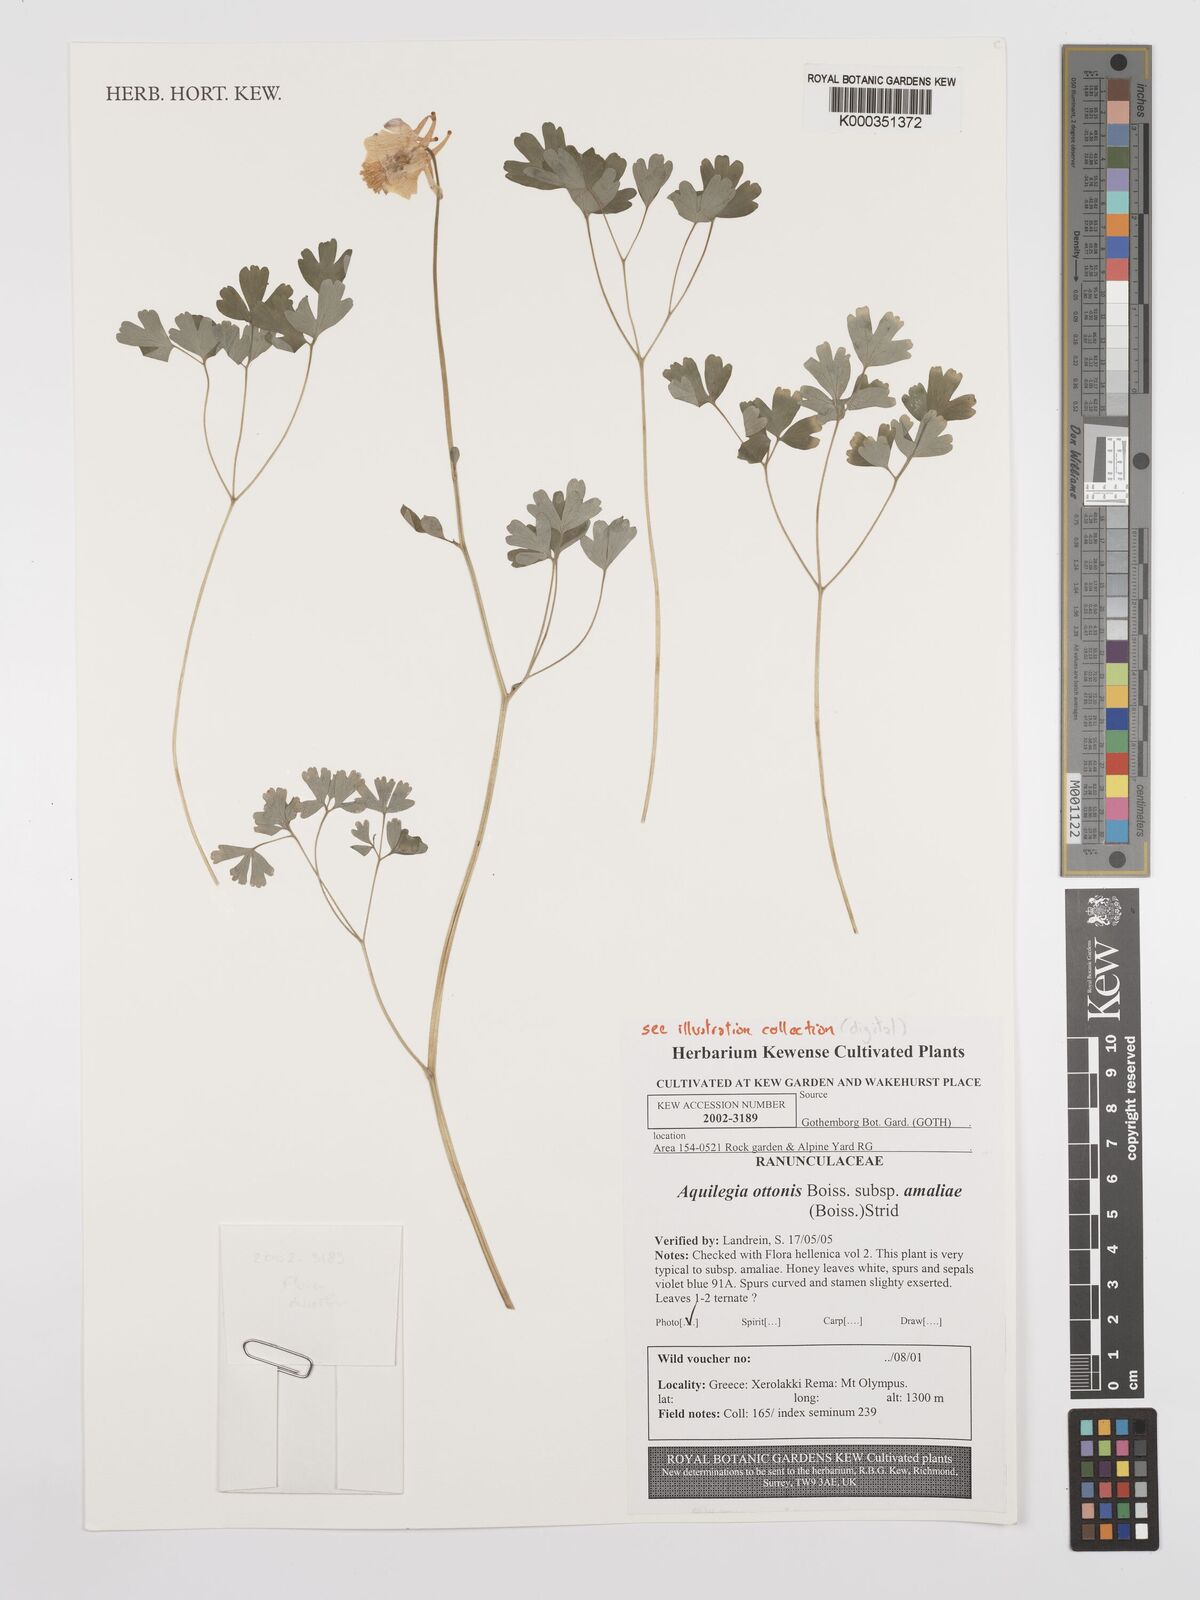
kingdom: Plantae
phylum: Tracheophyta
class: Magnoliopsida
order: Ranunculales
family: Ranunculaceae
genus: Aquilegia
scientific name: Aquilegia ottonis
